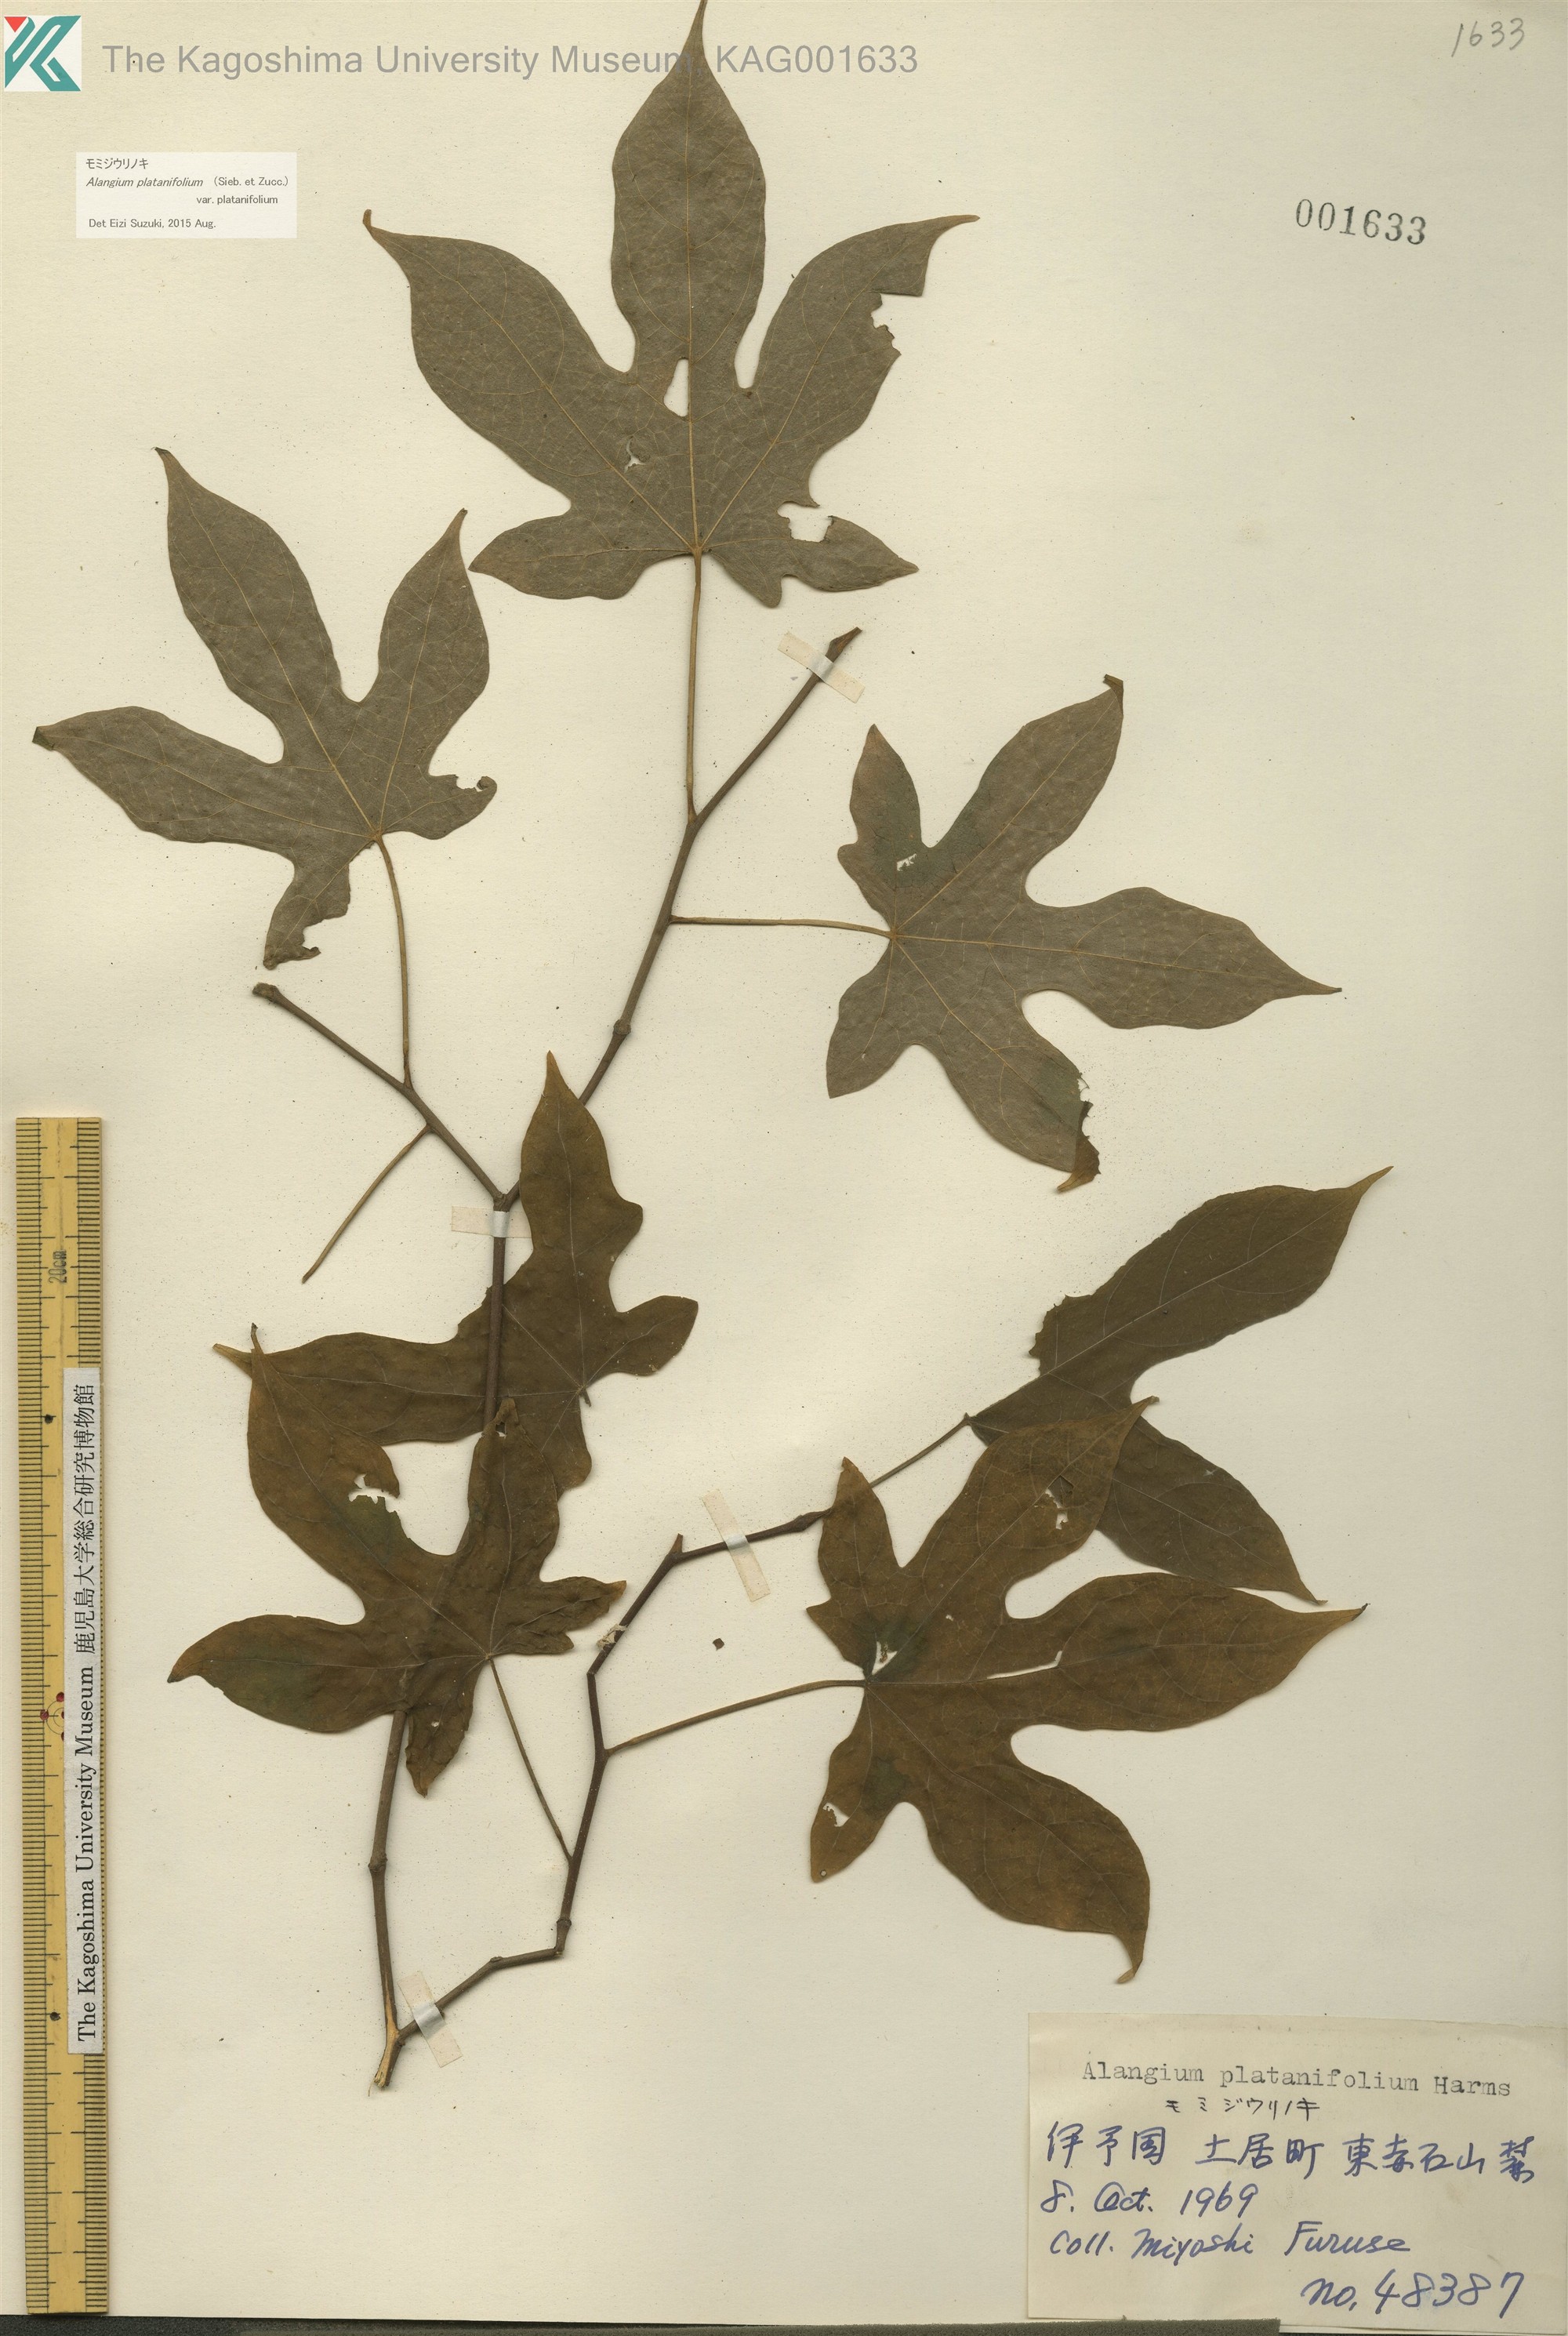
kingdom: Plantae
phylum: Tracheophyta
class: Magnoliopsida
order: Cornales
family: Cornaceae
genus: Alangium
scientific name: Alangium platanifolium
